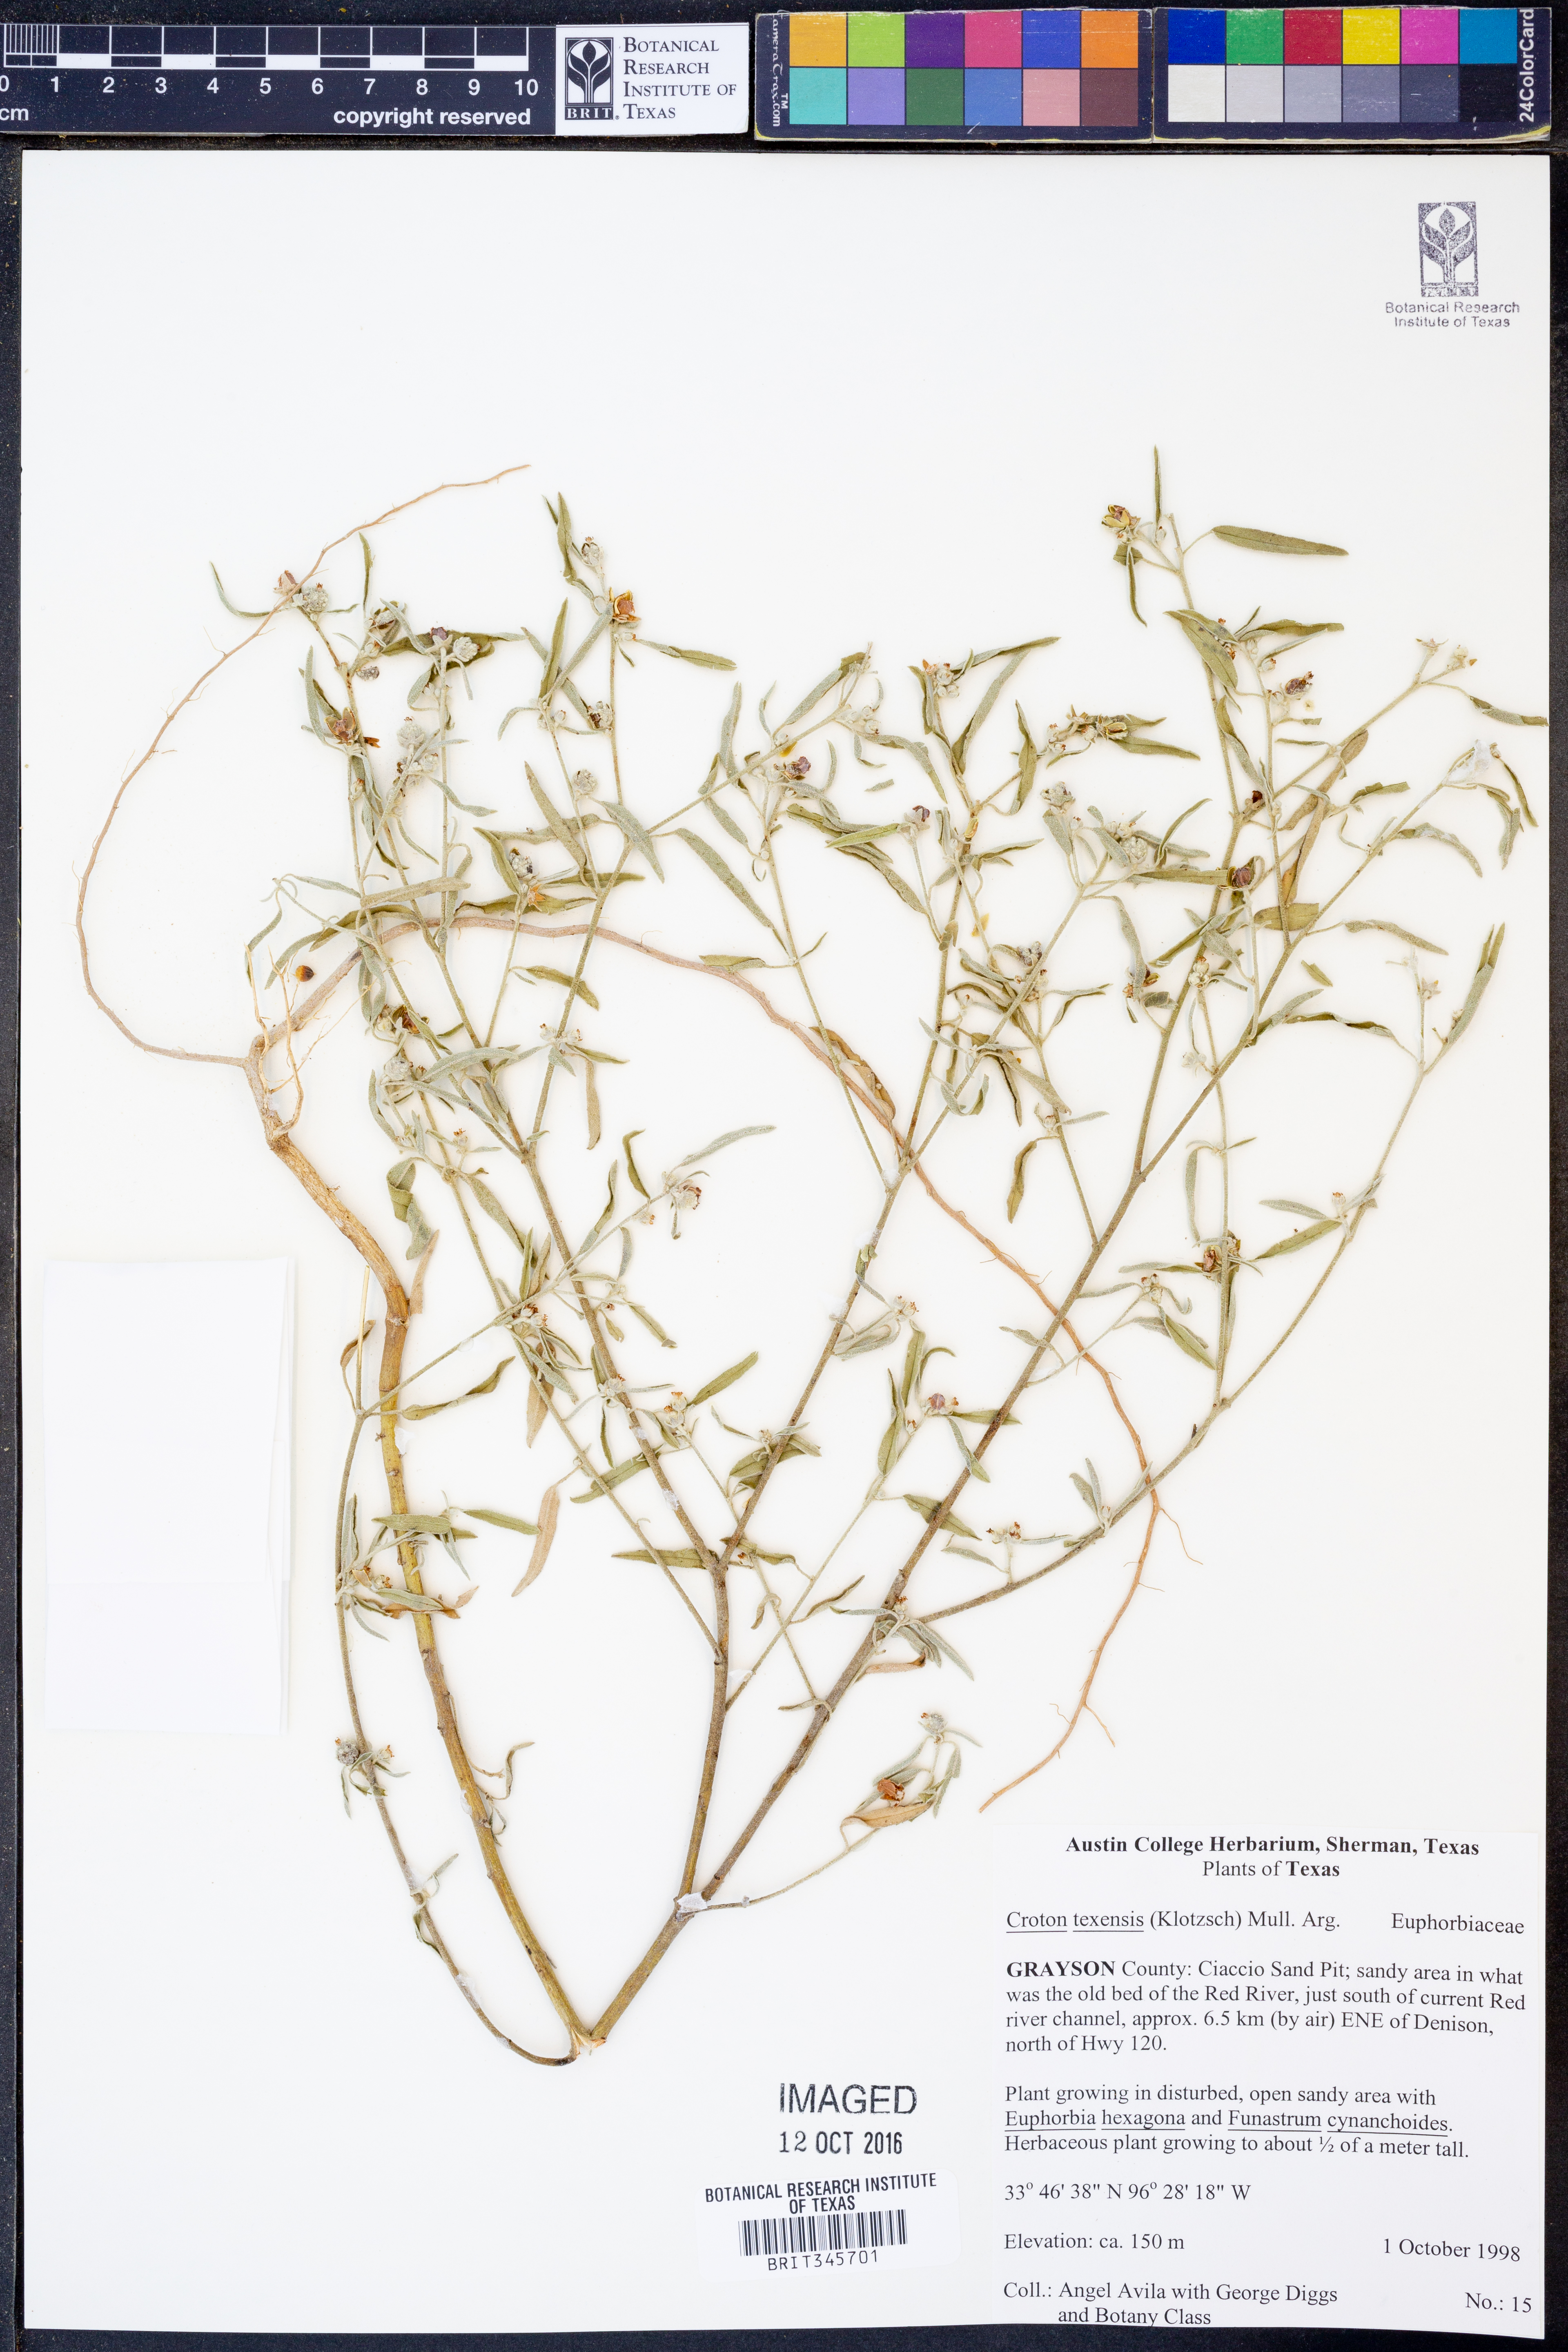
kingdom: Plantae
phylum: Tracheophyta
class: Magnoliopsida
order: Malpighiales
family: Euphorbiaceae
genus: Croton
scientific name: Croton texensis
